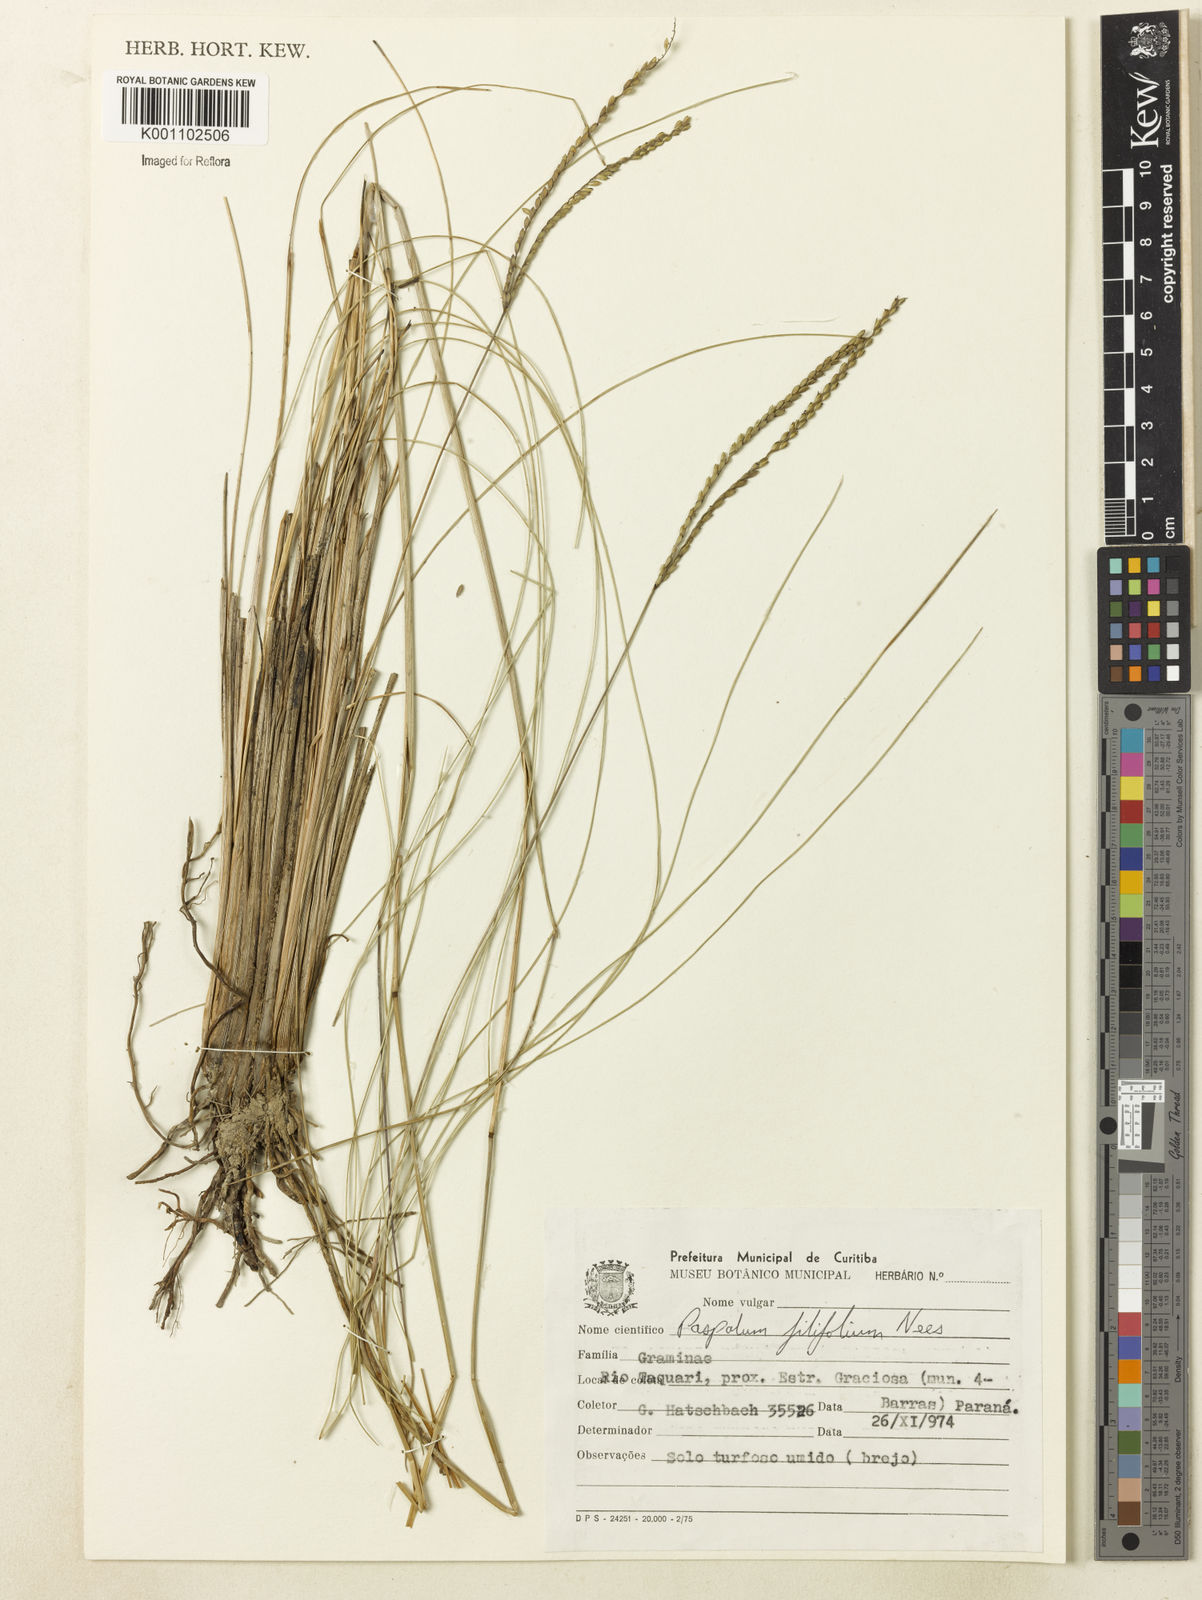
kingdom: Plantae
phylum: Tracheophyta
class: Liliopsida
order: Poales
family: Poaceae
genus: Paspalum
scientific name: Paspalum filifolium
